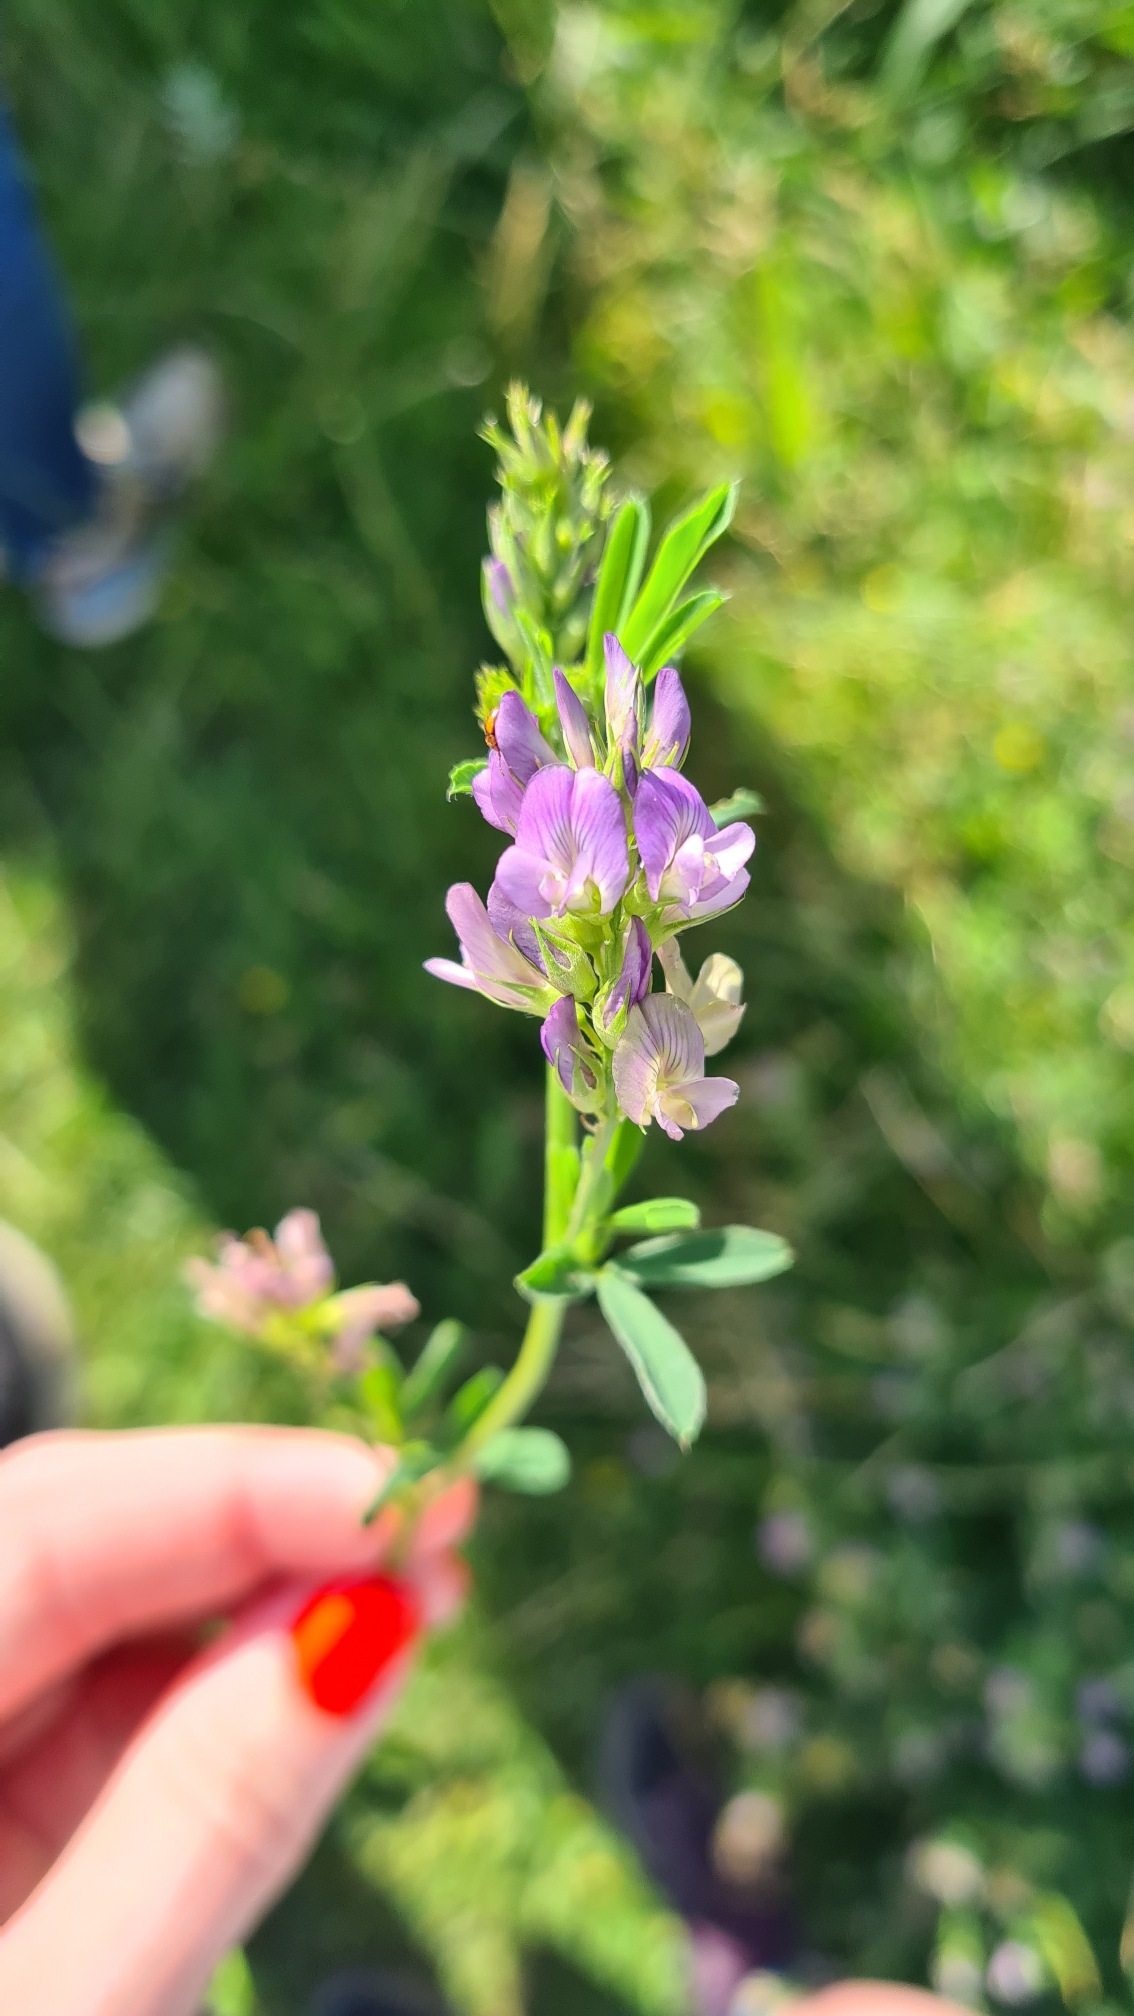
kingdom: Plantae
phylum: Tracheophyta
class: Magnoliopsida
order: Fabales
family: Fabaceae
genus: Medicago
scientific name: Medicago sativa
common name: Lucerne
